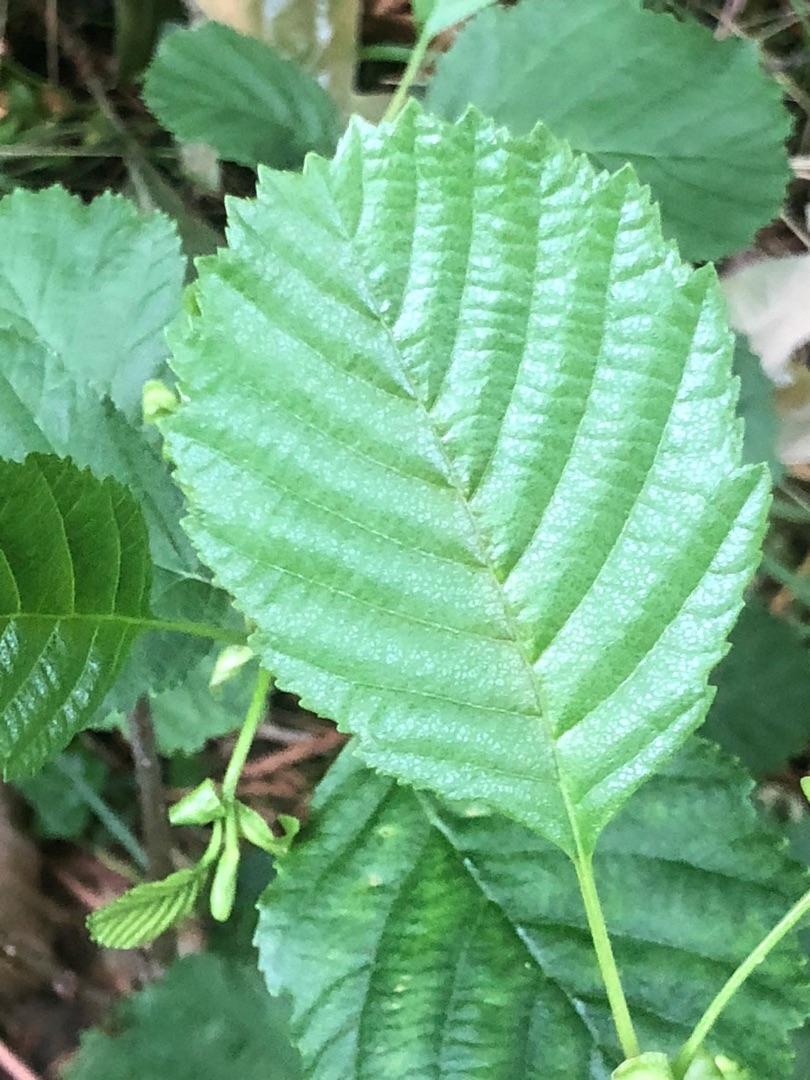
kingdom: Plantae
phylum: Tracheophyta
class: Magnoliopsida
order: Fagales
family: Betulaceae
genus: Alnus
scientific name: Alnus glutinosa
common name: Rød-el
